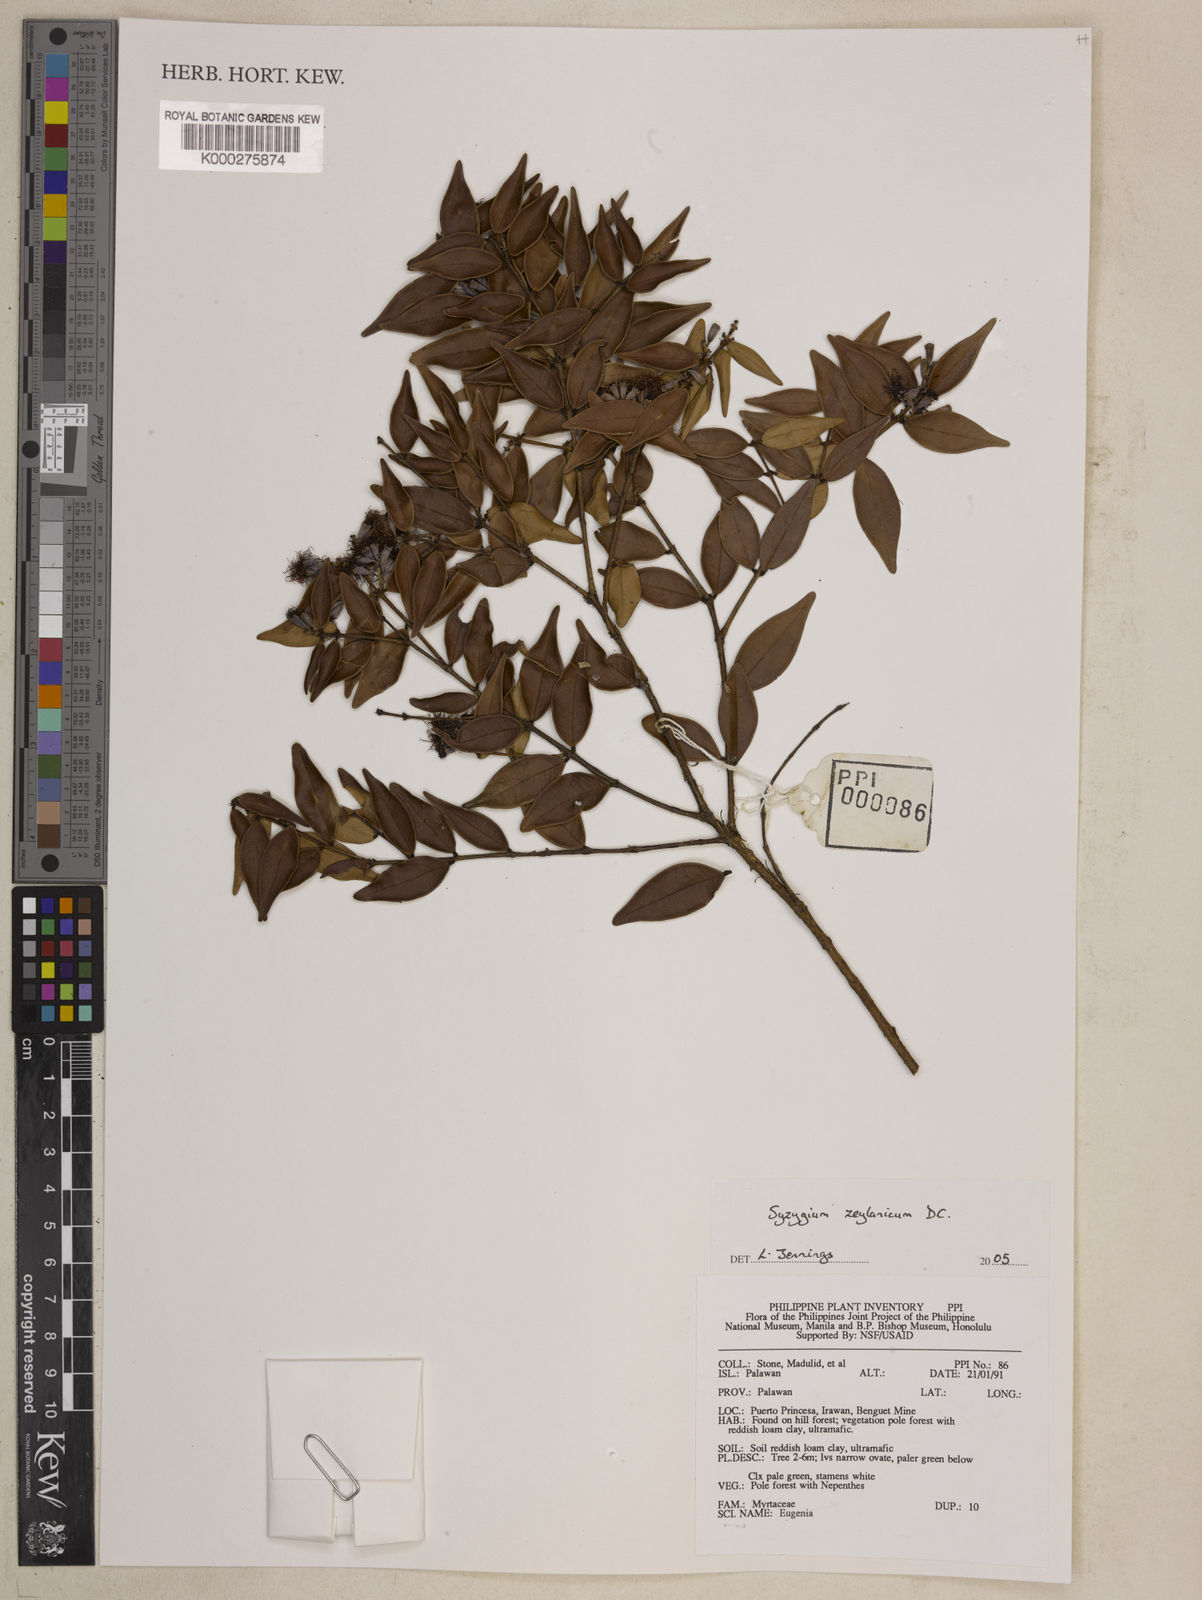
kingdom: Plantae
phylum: Tracheophyta
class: Magnoliopsida
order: Myrtales
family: Myrtaceae
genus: Syzygium
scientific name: Syzygium zeylanicum
